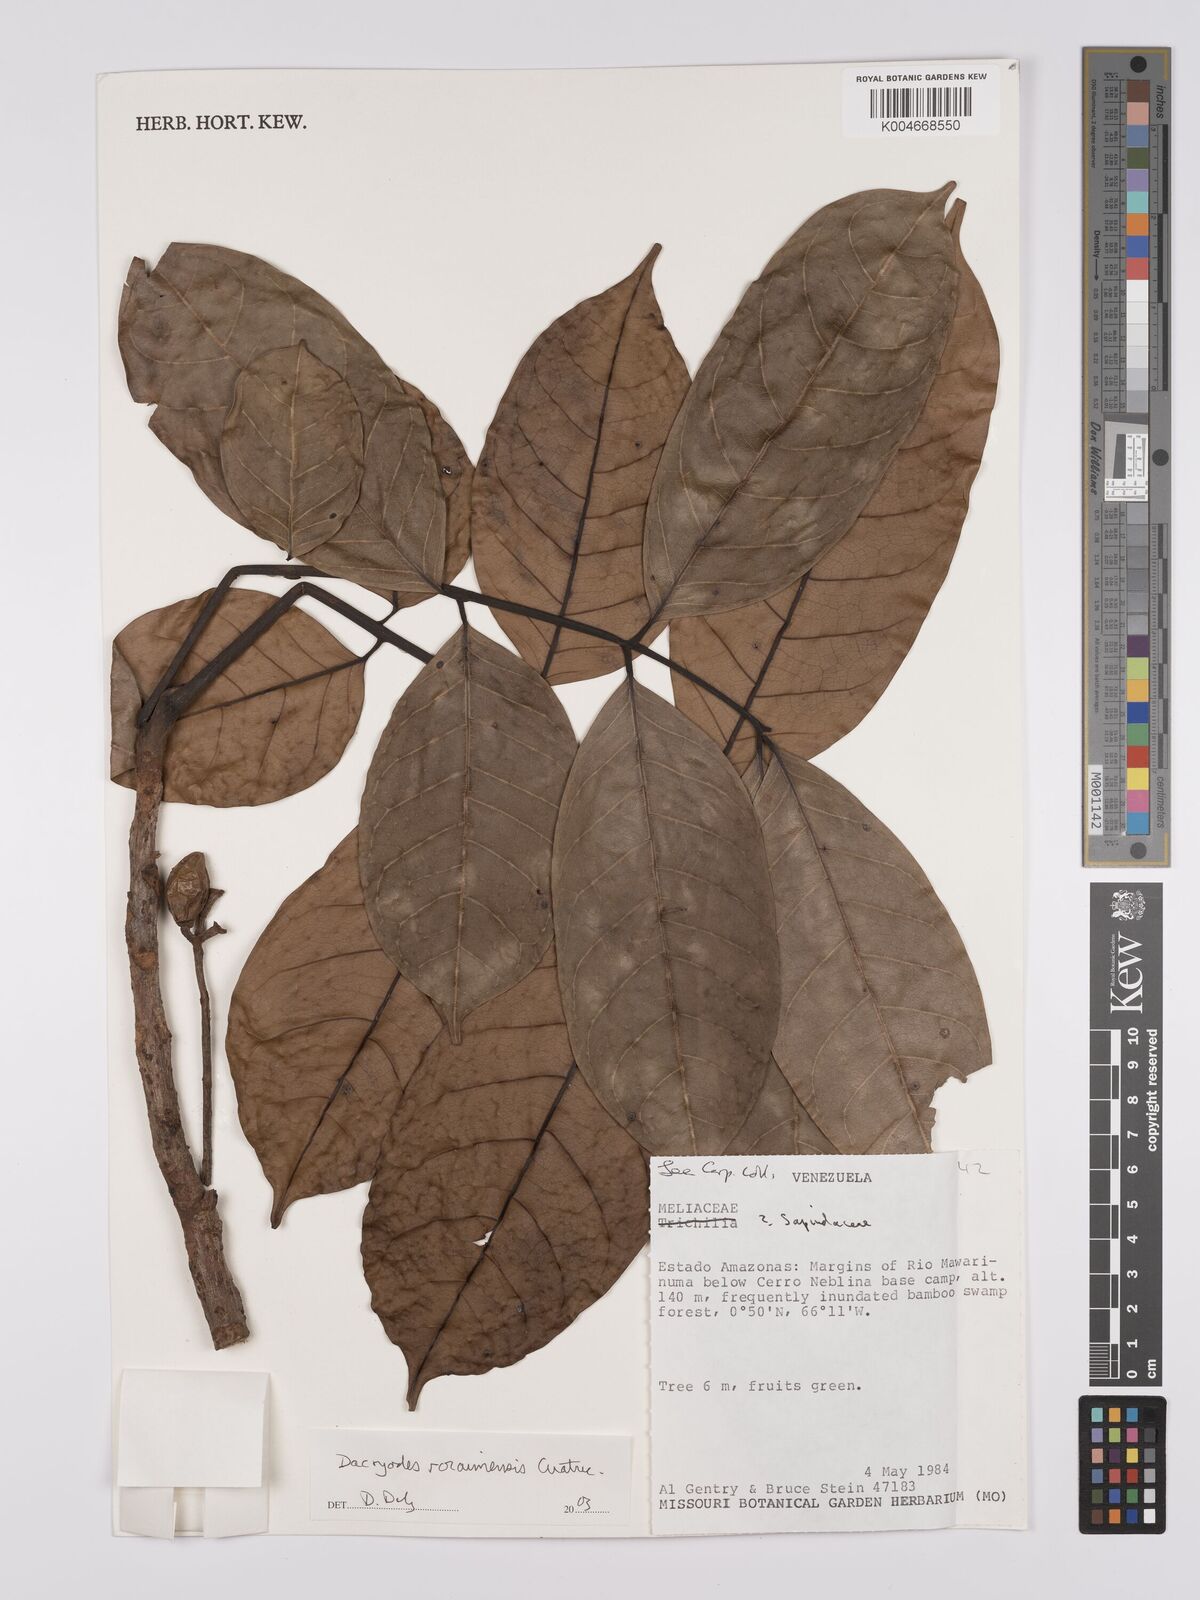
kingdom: Plantae
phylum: Tracheophyta
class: Magnoliopsida
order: Sapindales
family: Burseraceae
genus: Dacryodes
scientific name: Dacryodes roraimensis
